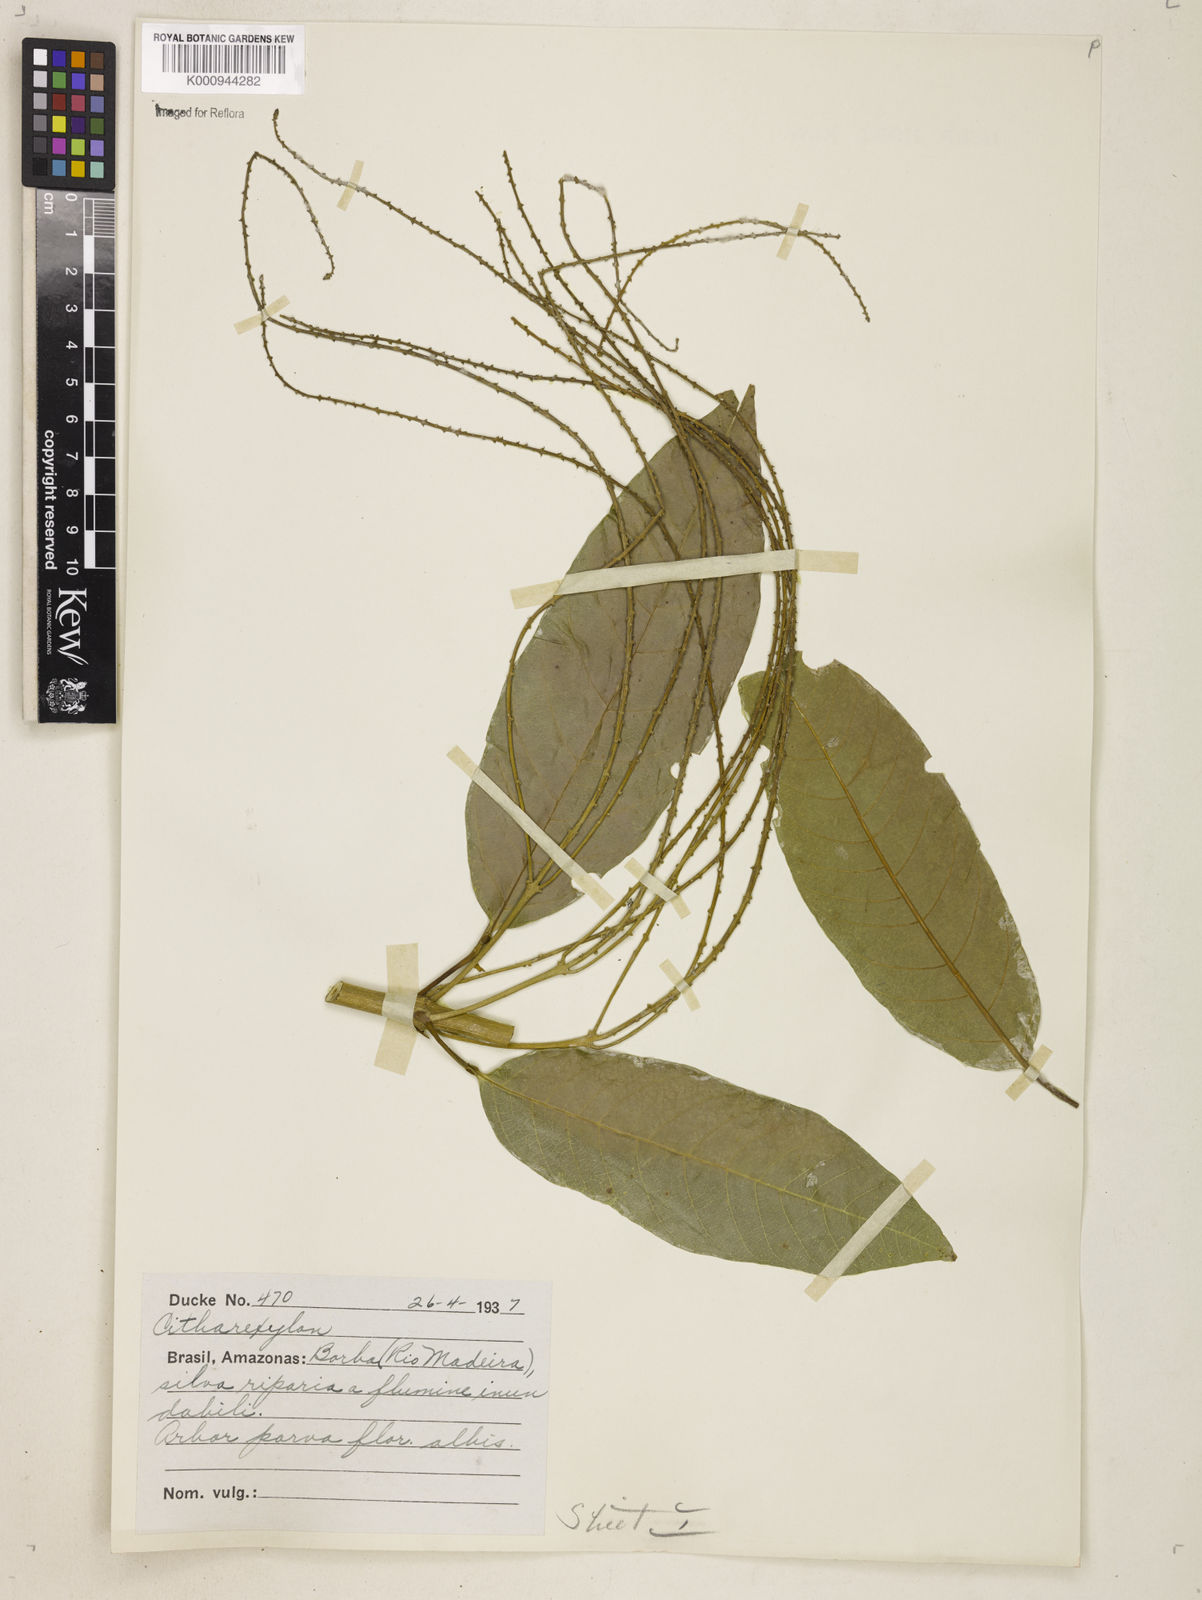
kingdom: Plantae
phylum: Tracheophyta
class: Magnoliopsida
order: Lamiales
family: Verbenaceae
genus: Citharexylum
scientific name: Citharexylum
